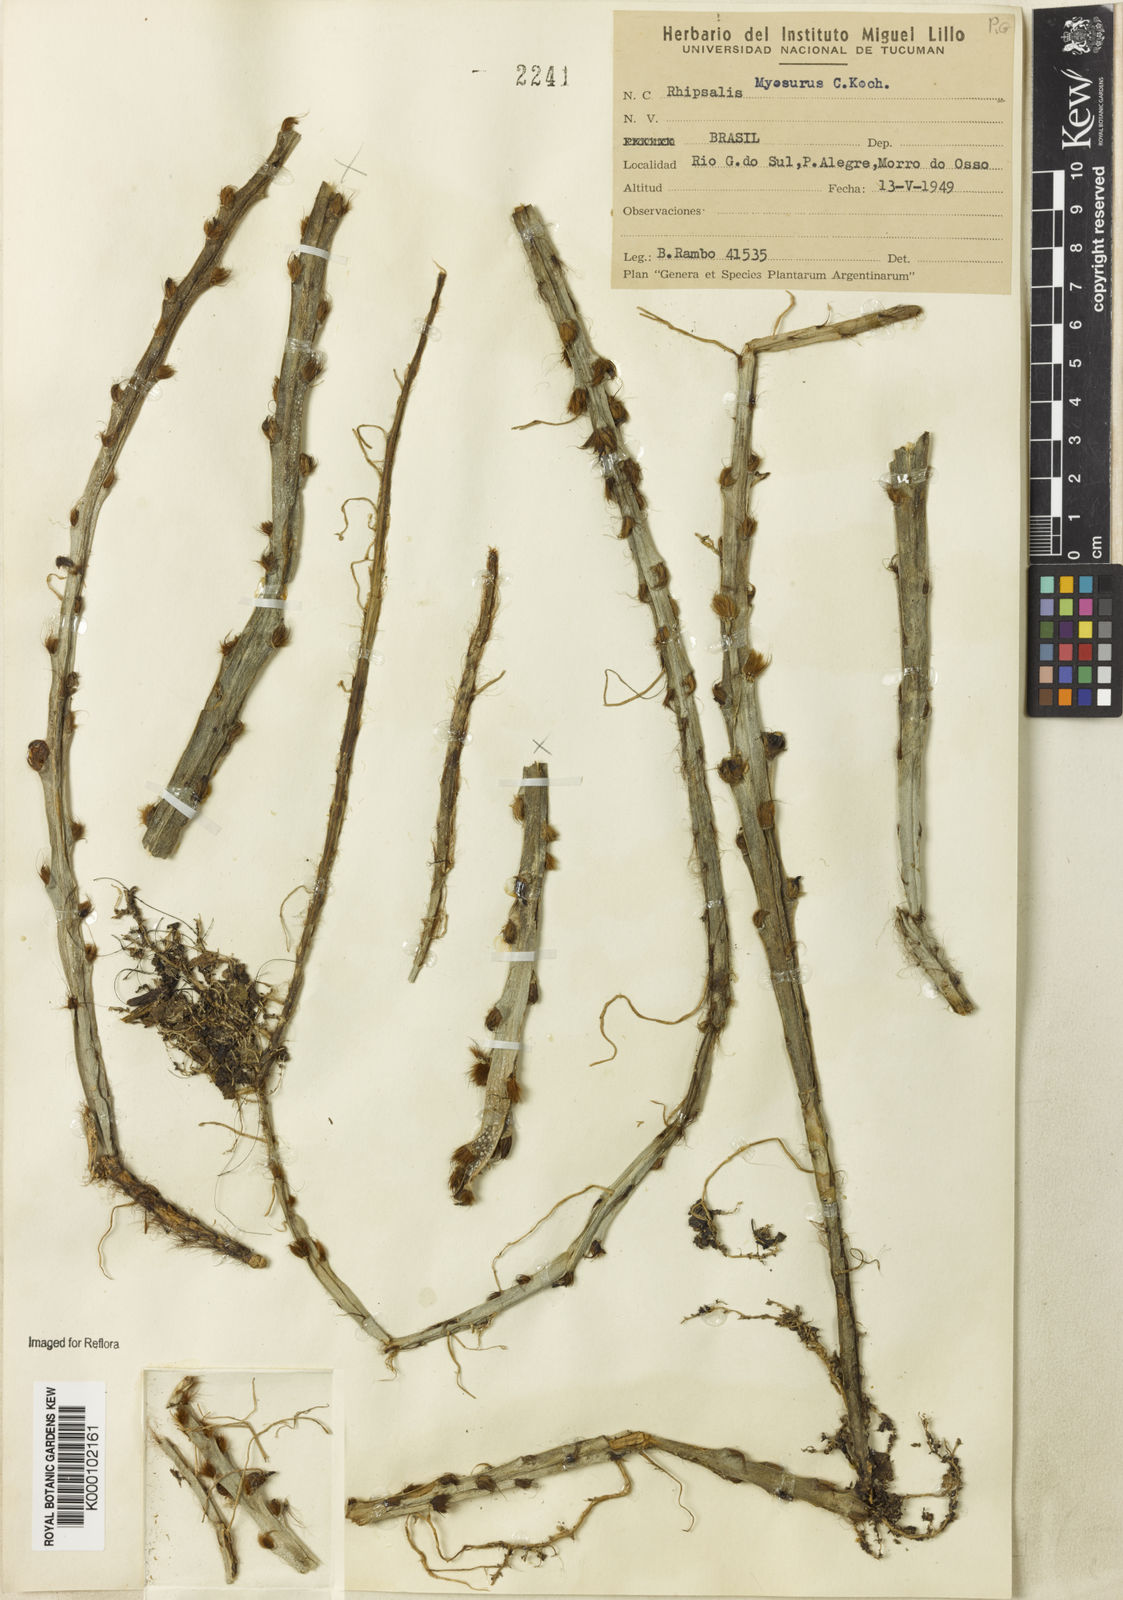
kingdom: Plantae
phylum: Tracheophyta
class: Magnoliopsida
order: Caryophyllales
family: Cactaceae
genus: Lepismium
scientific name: Lepismium cruciforme
